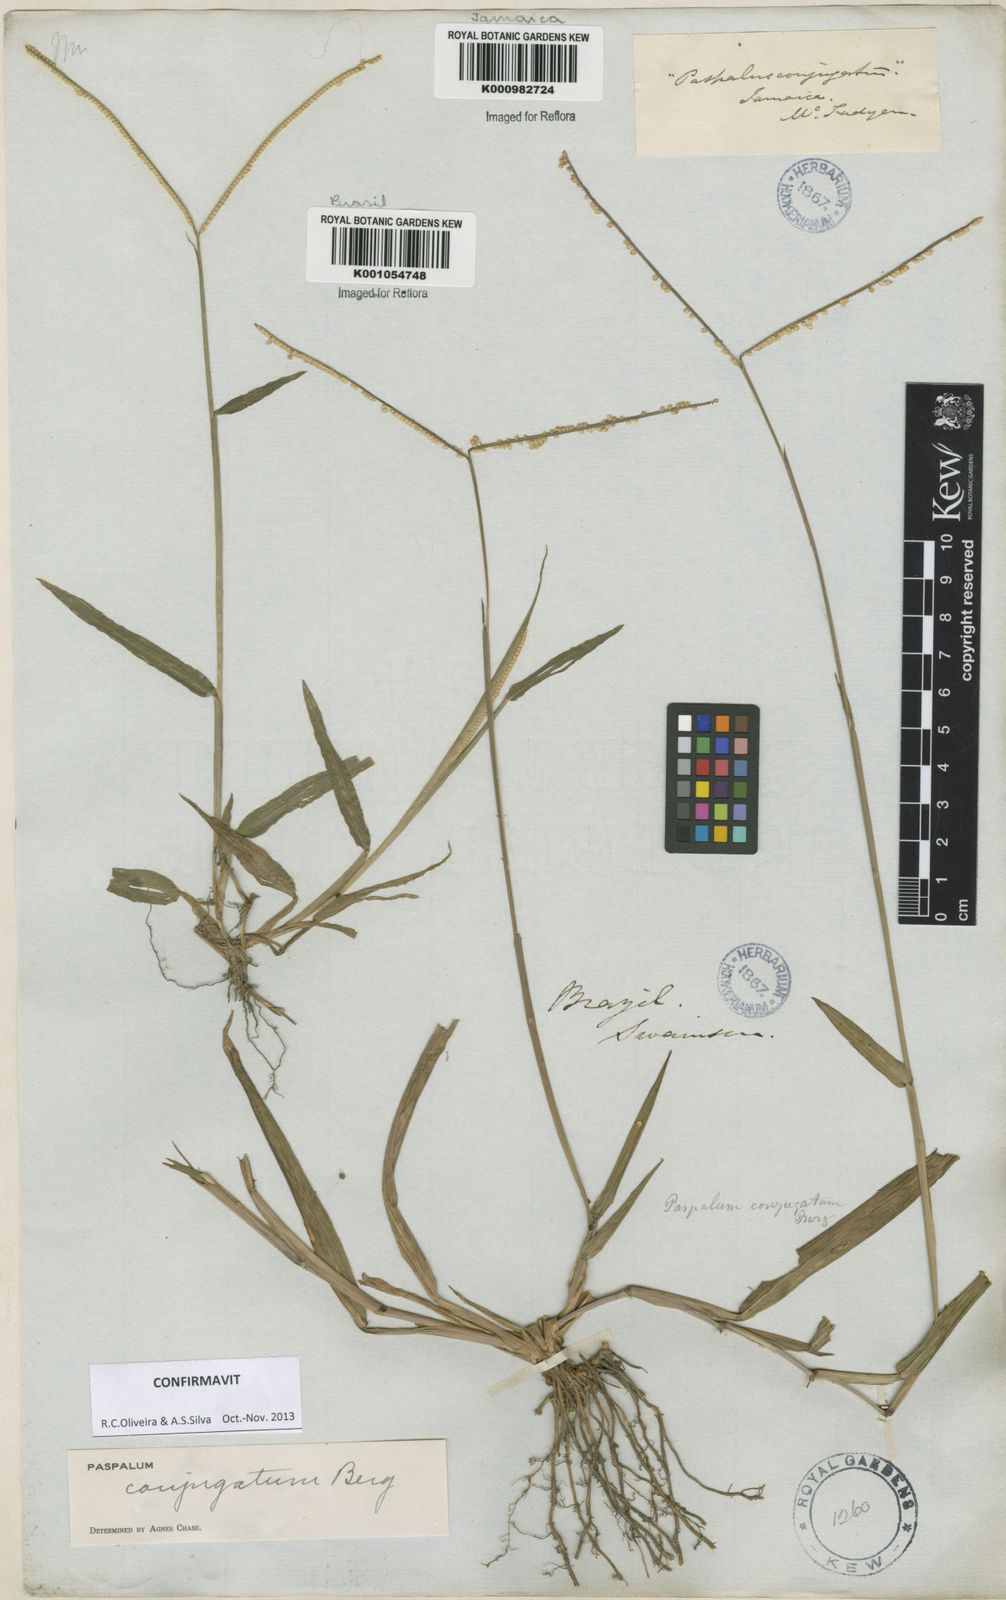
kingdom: Plantae
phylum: Tracheophyta
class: Liliopsida
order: Poales
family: Poaceae
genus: Paspalum
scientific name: Paspalum conjugatum
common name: Hilograss
